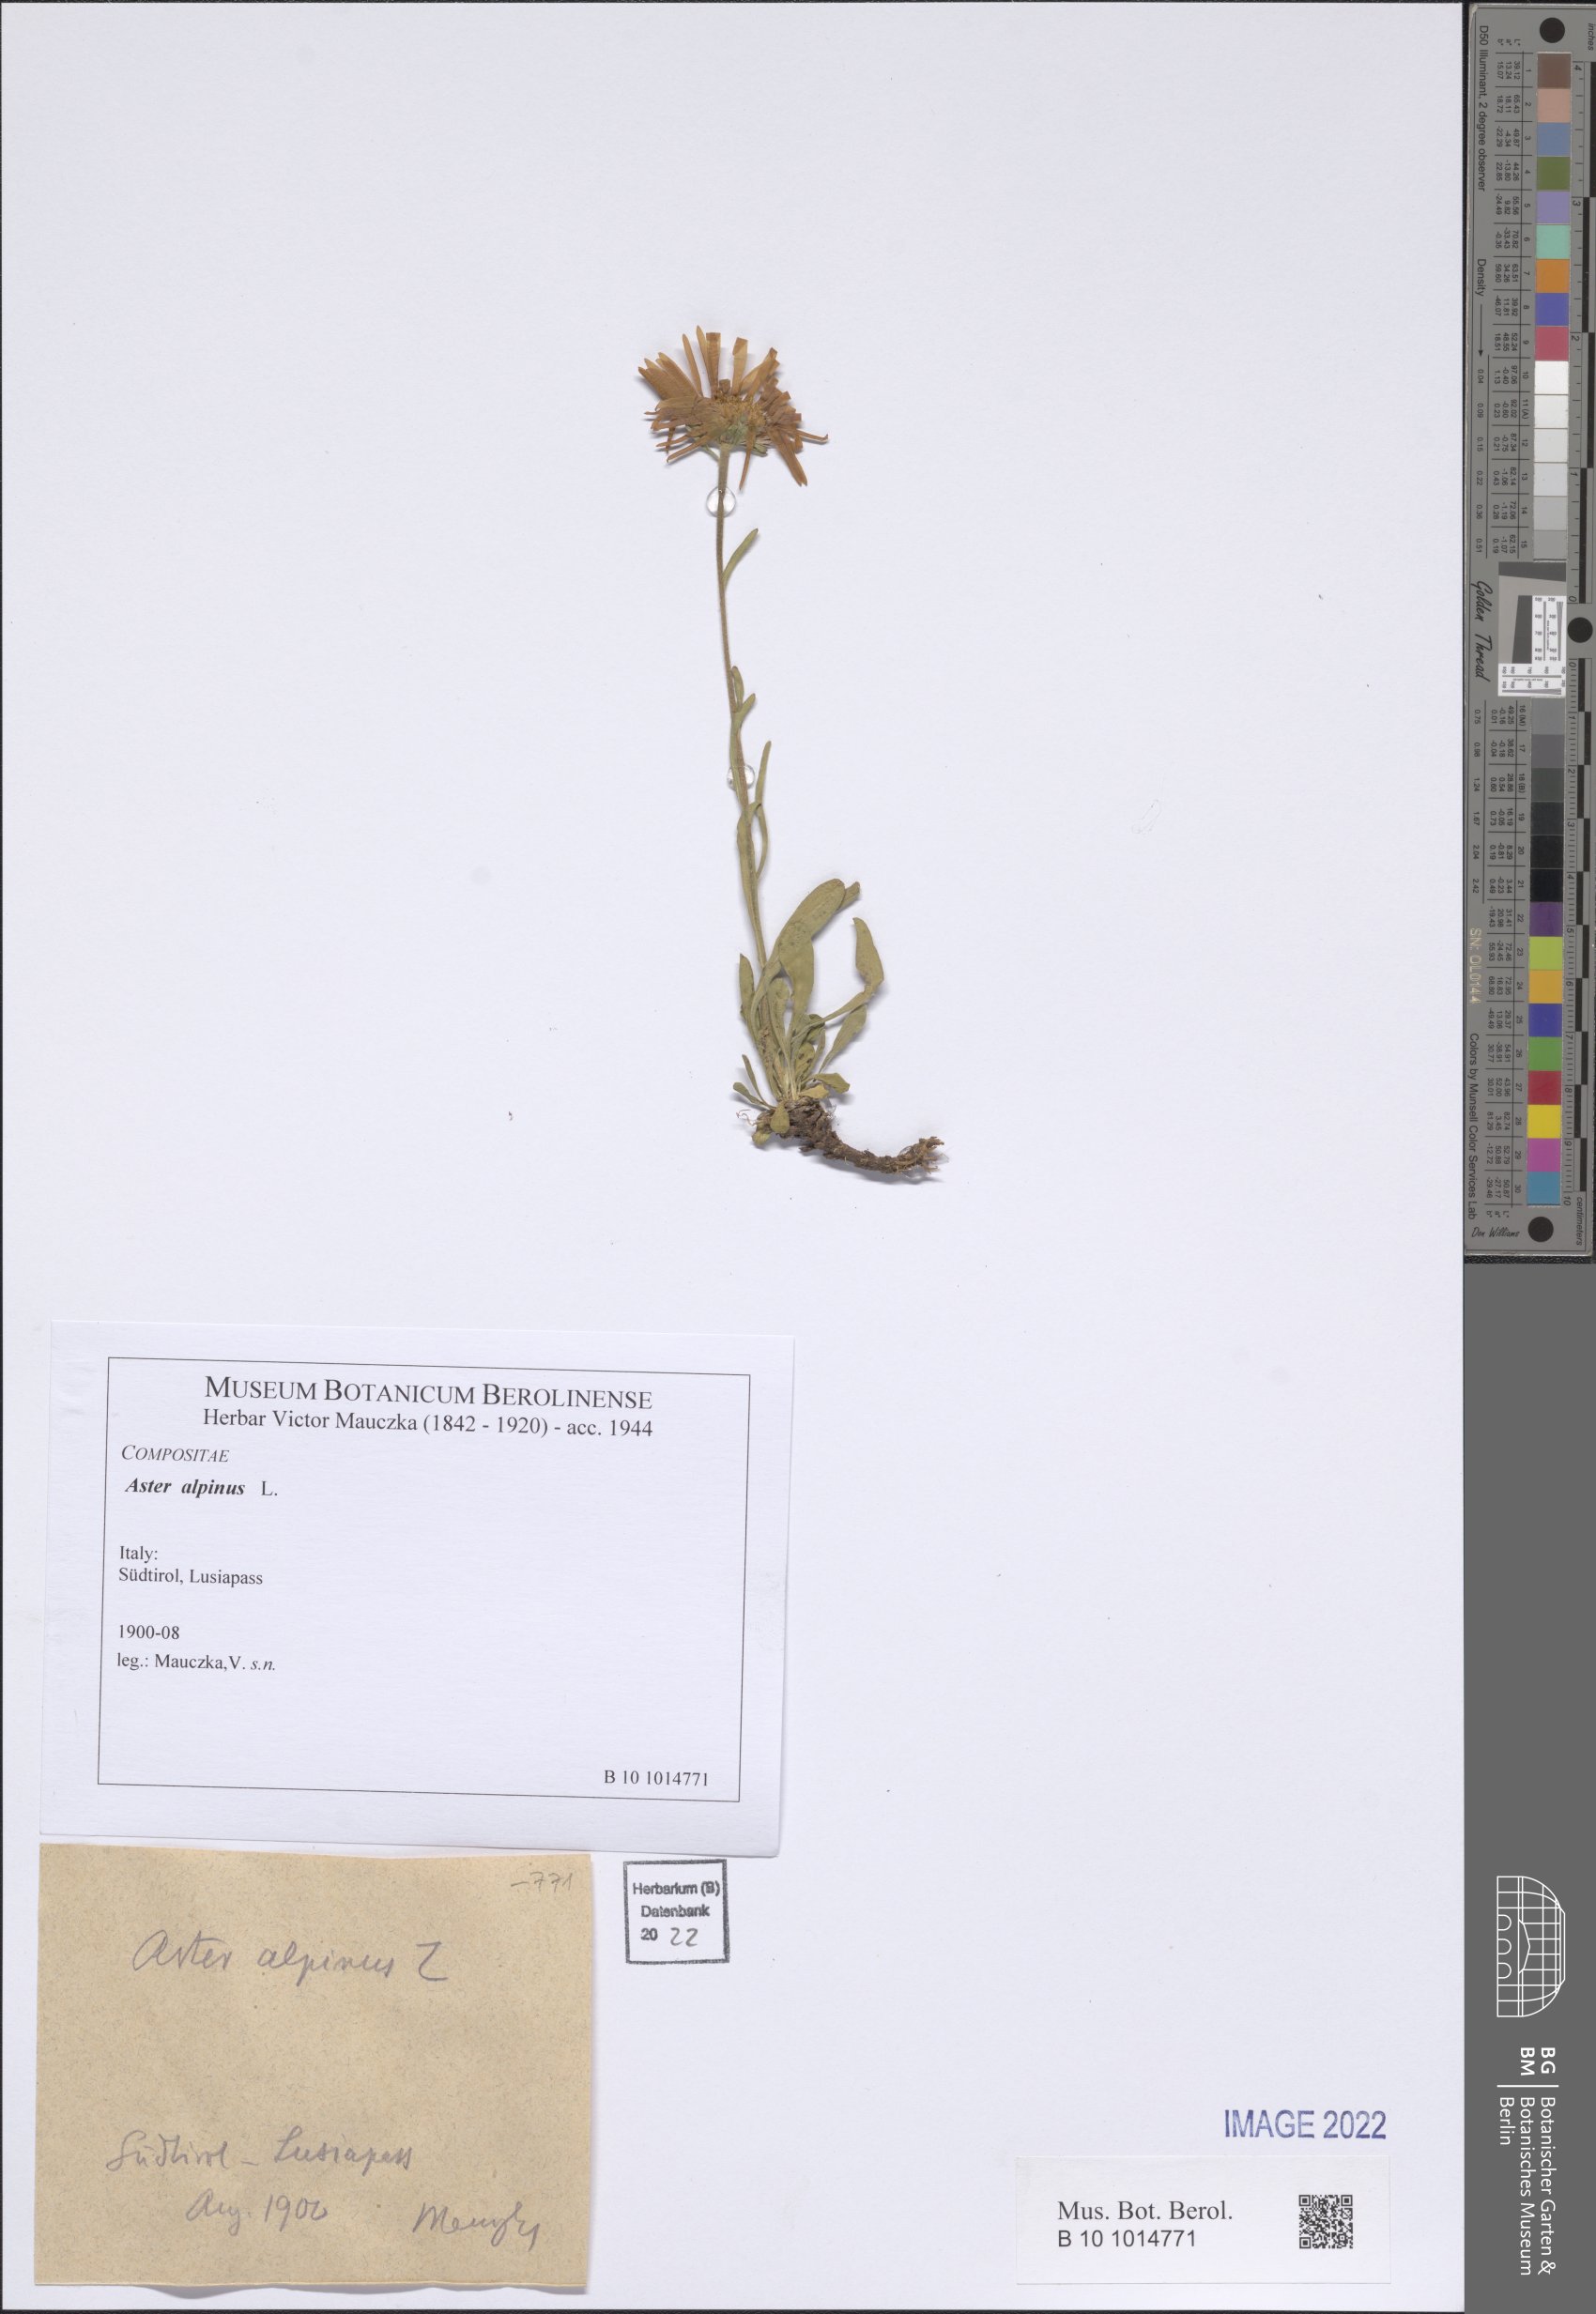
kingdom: Plantae
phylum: Tracheophyta
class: Magnoliopsida
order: Asterales
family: Asteraceae
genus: Aster
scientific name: Aster alpinus
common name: Alpine aster
